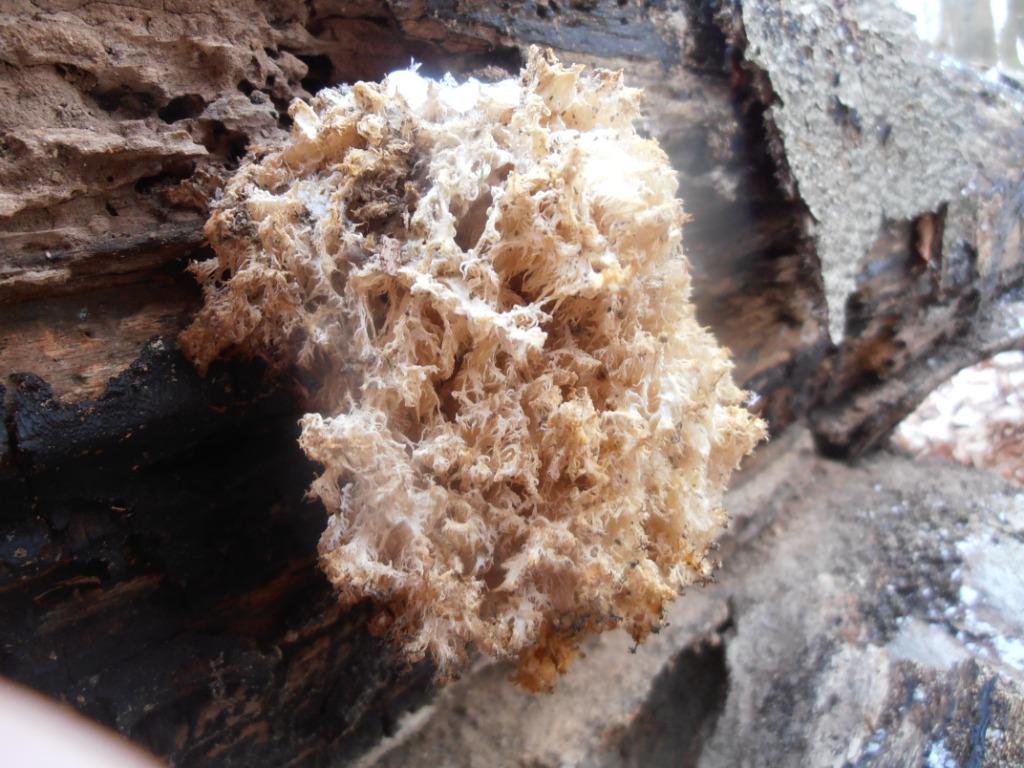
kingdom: Fungi
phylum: Basidiomycota
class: Agaricomycetes
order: Russulales
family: Hericiaceae
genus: Hericium
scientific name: Hericium coralloides
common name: koralpigsvamp
